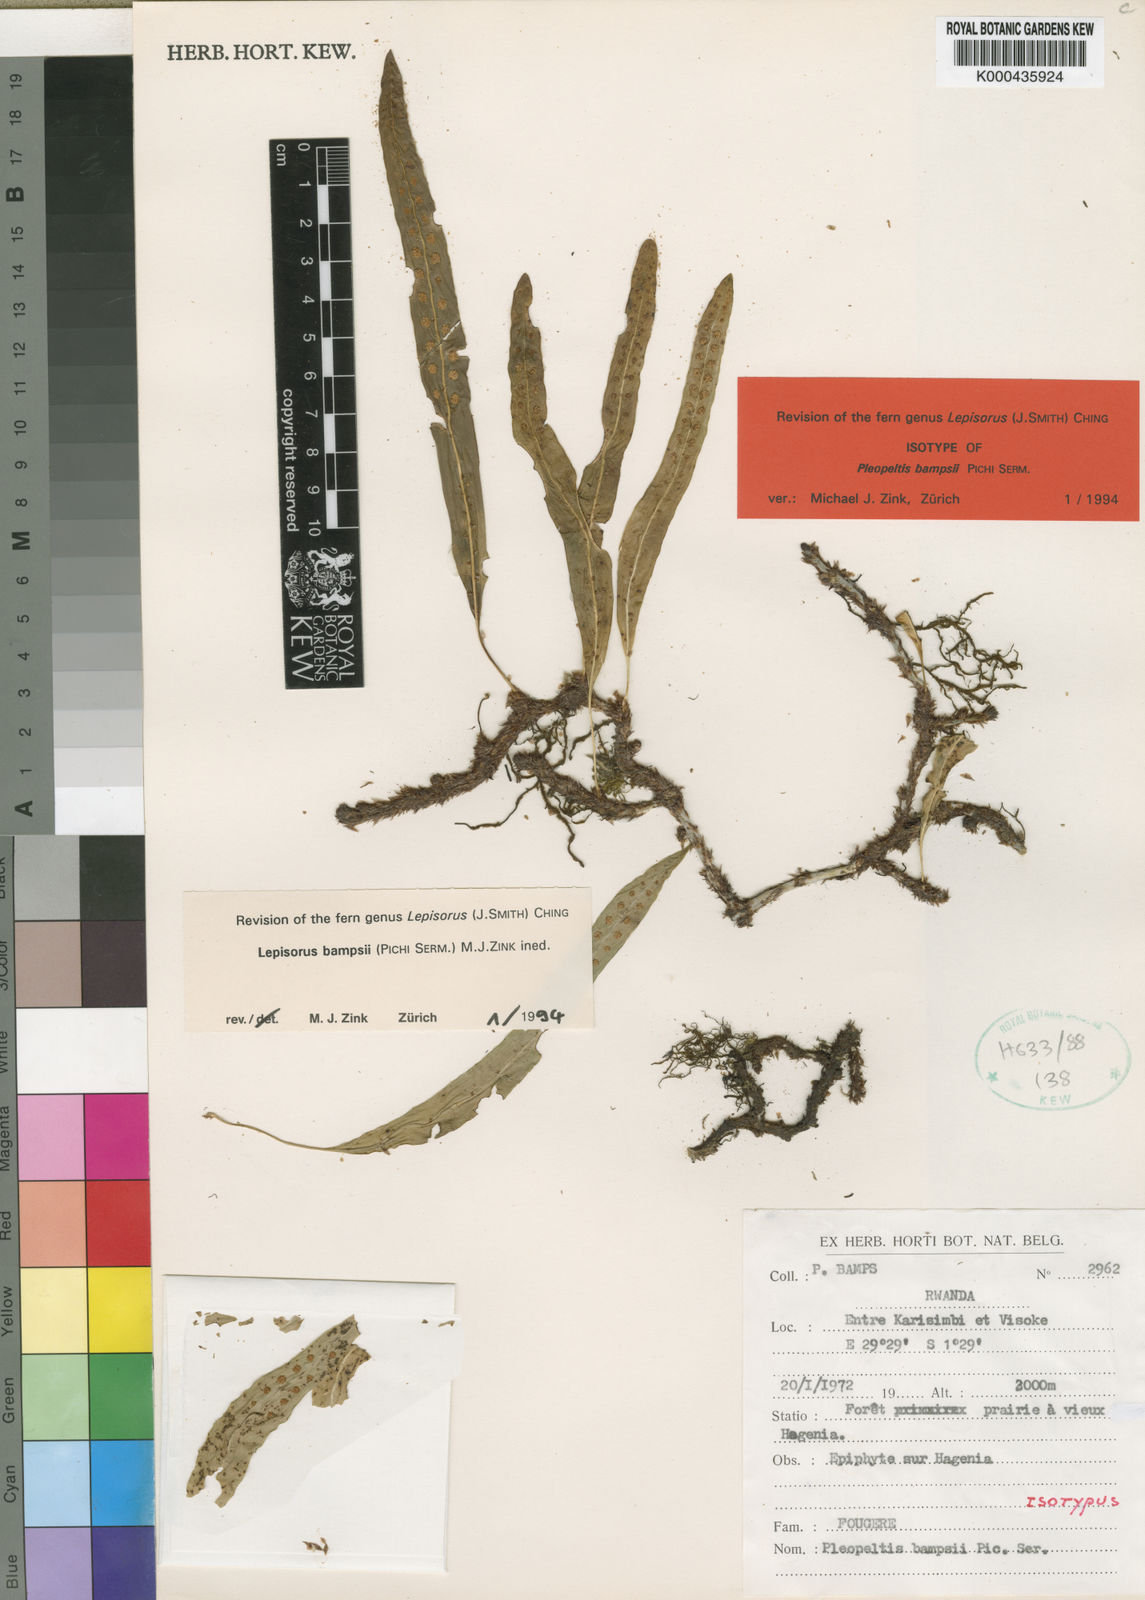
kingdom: Plantae
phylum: Tracheophyta
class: Polypodiopsida
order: Polypodiales
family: Polypodiaceae
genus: Lepisorus
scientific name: Lepisorus excavatus
